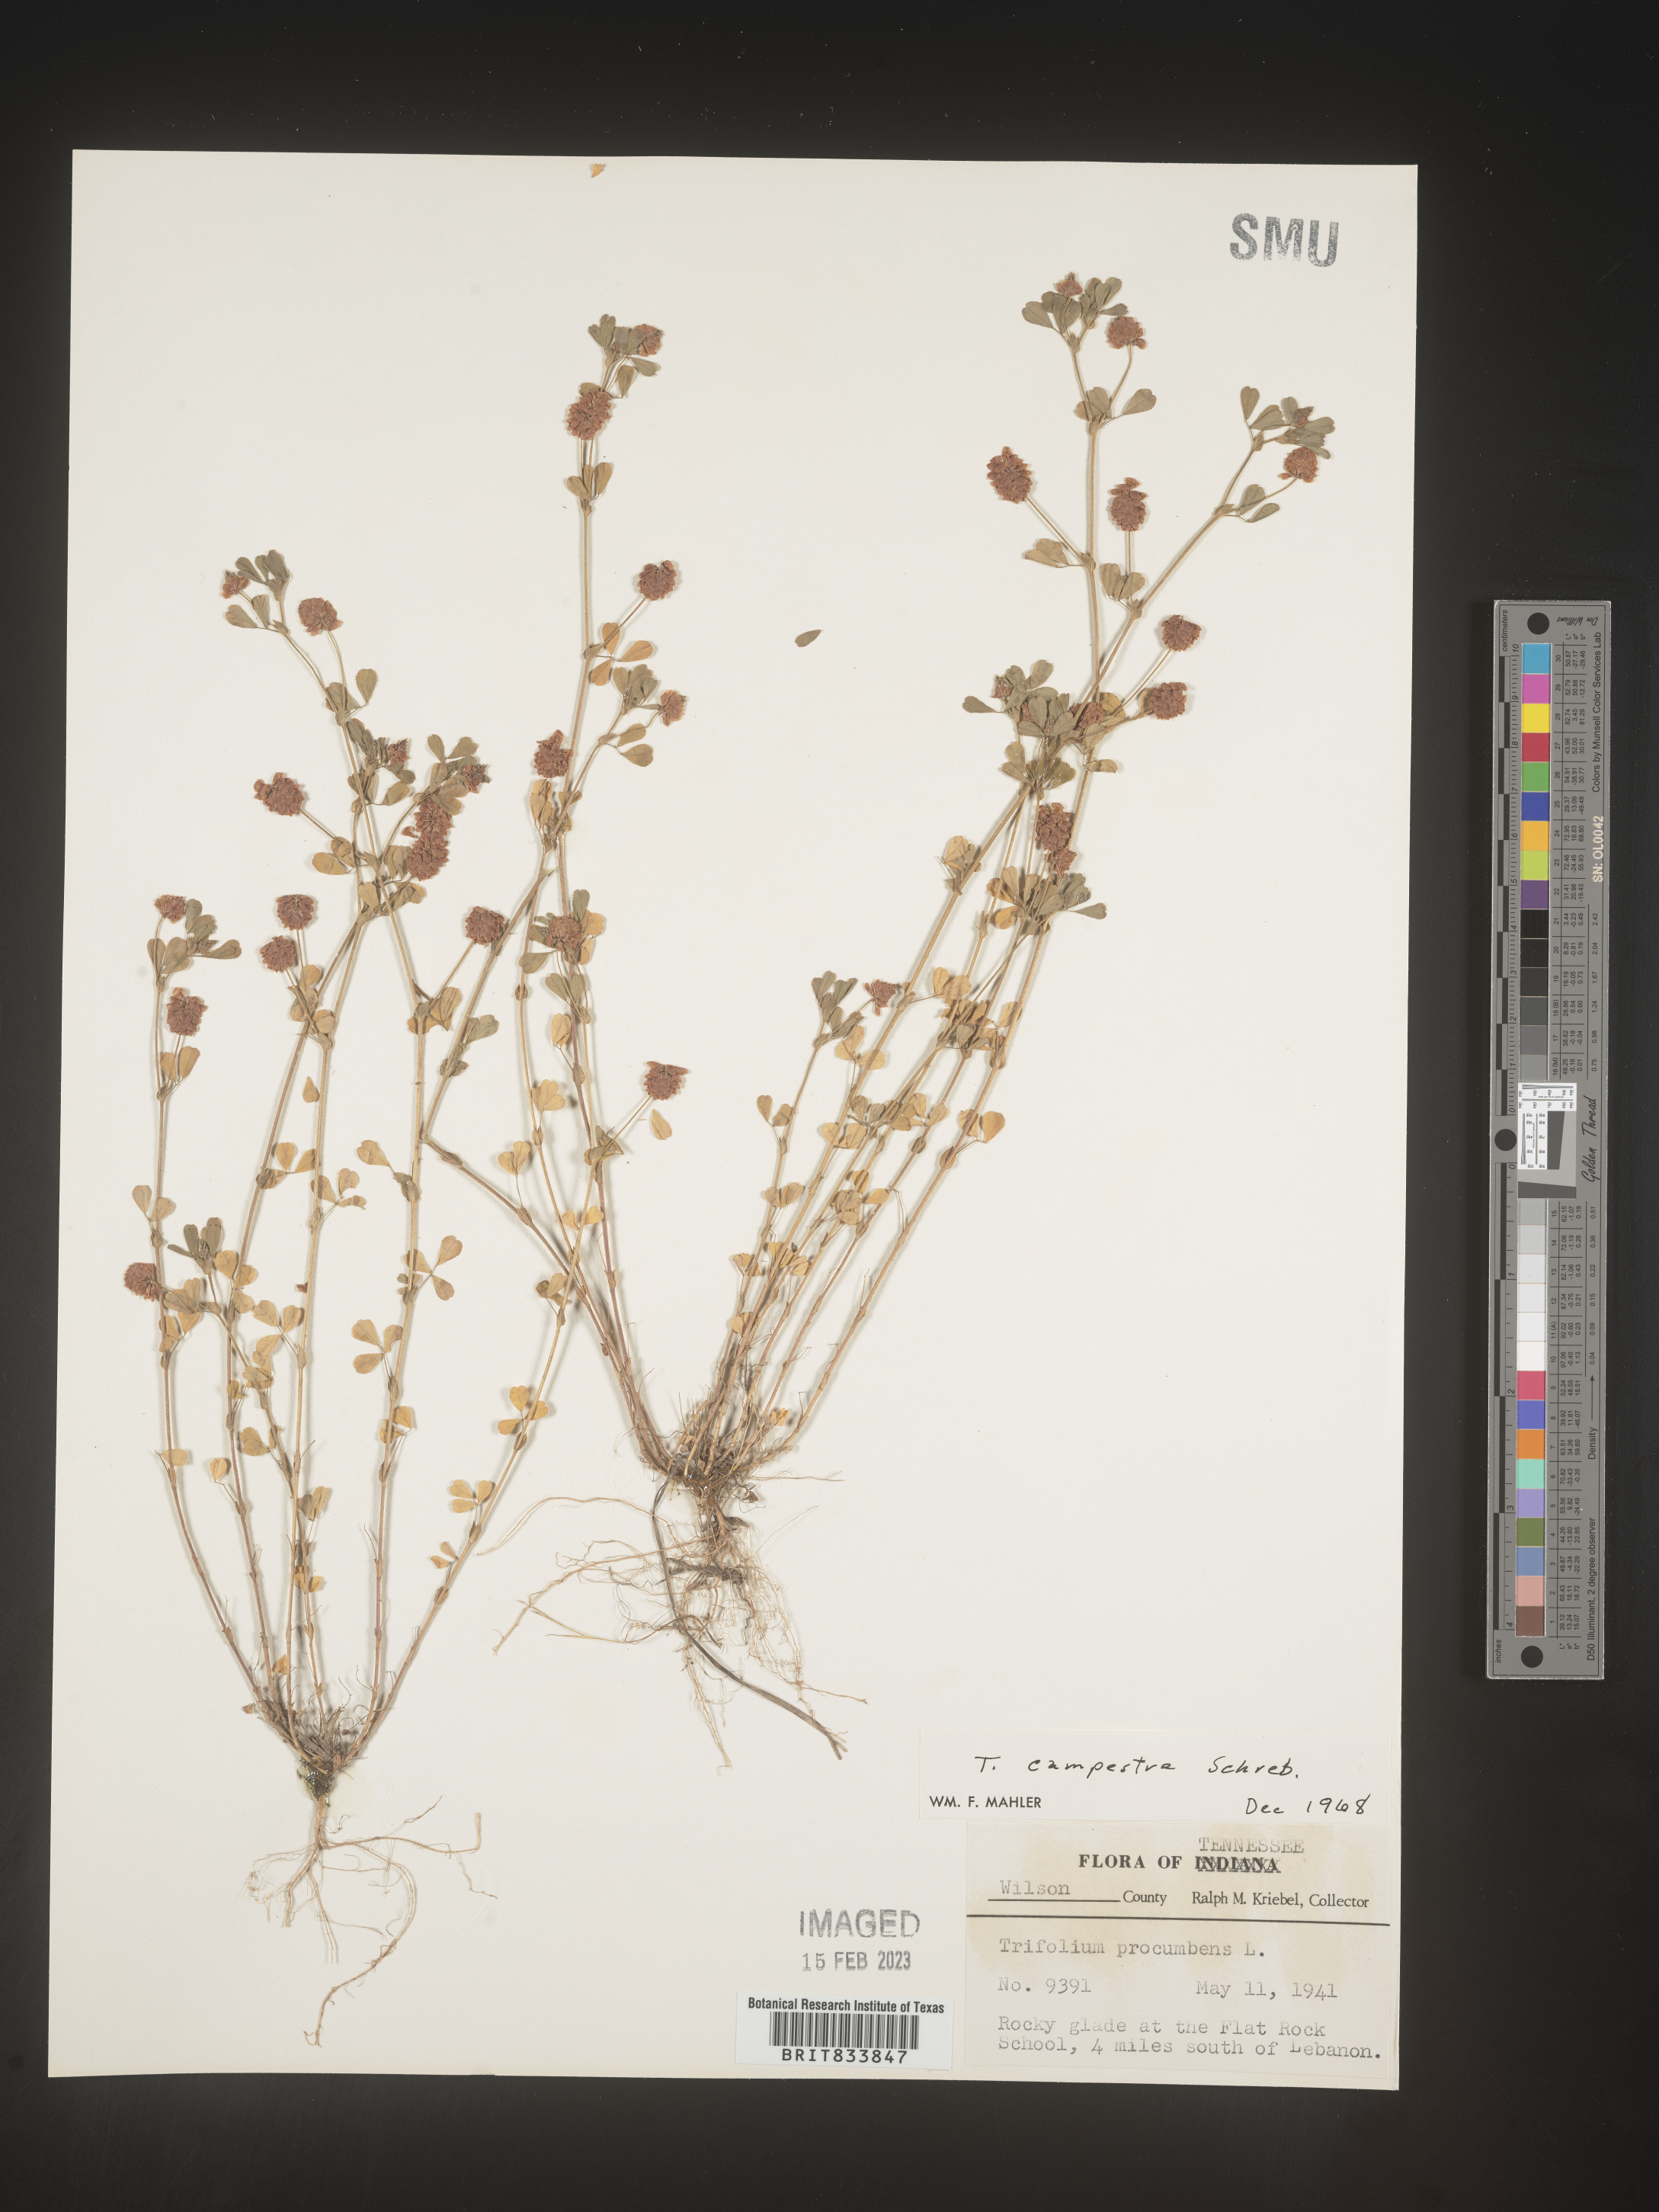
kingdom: Plantae
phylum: Tracheophyta
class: Magnoliopsida
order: Fabales
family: Fabaceae
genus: Trifolium
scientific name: Trifolium campestre
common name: Field clover
